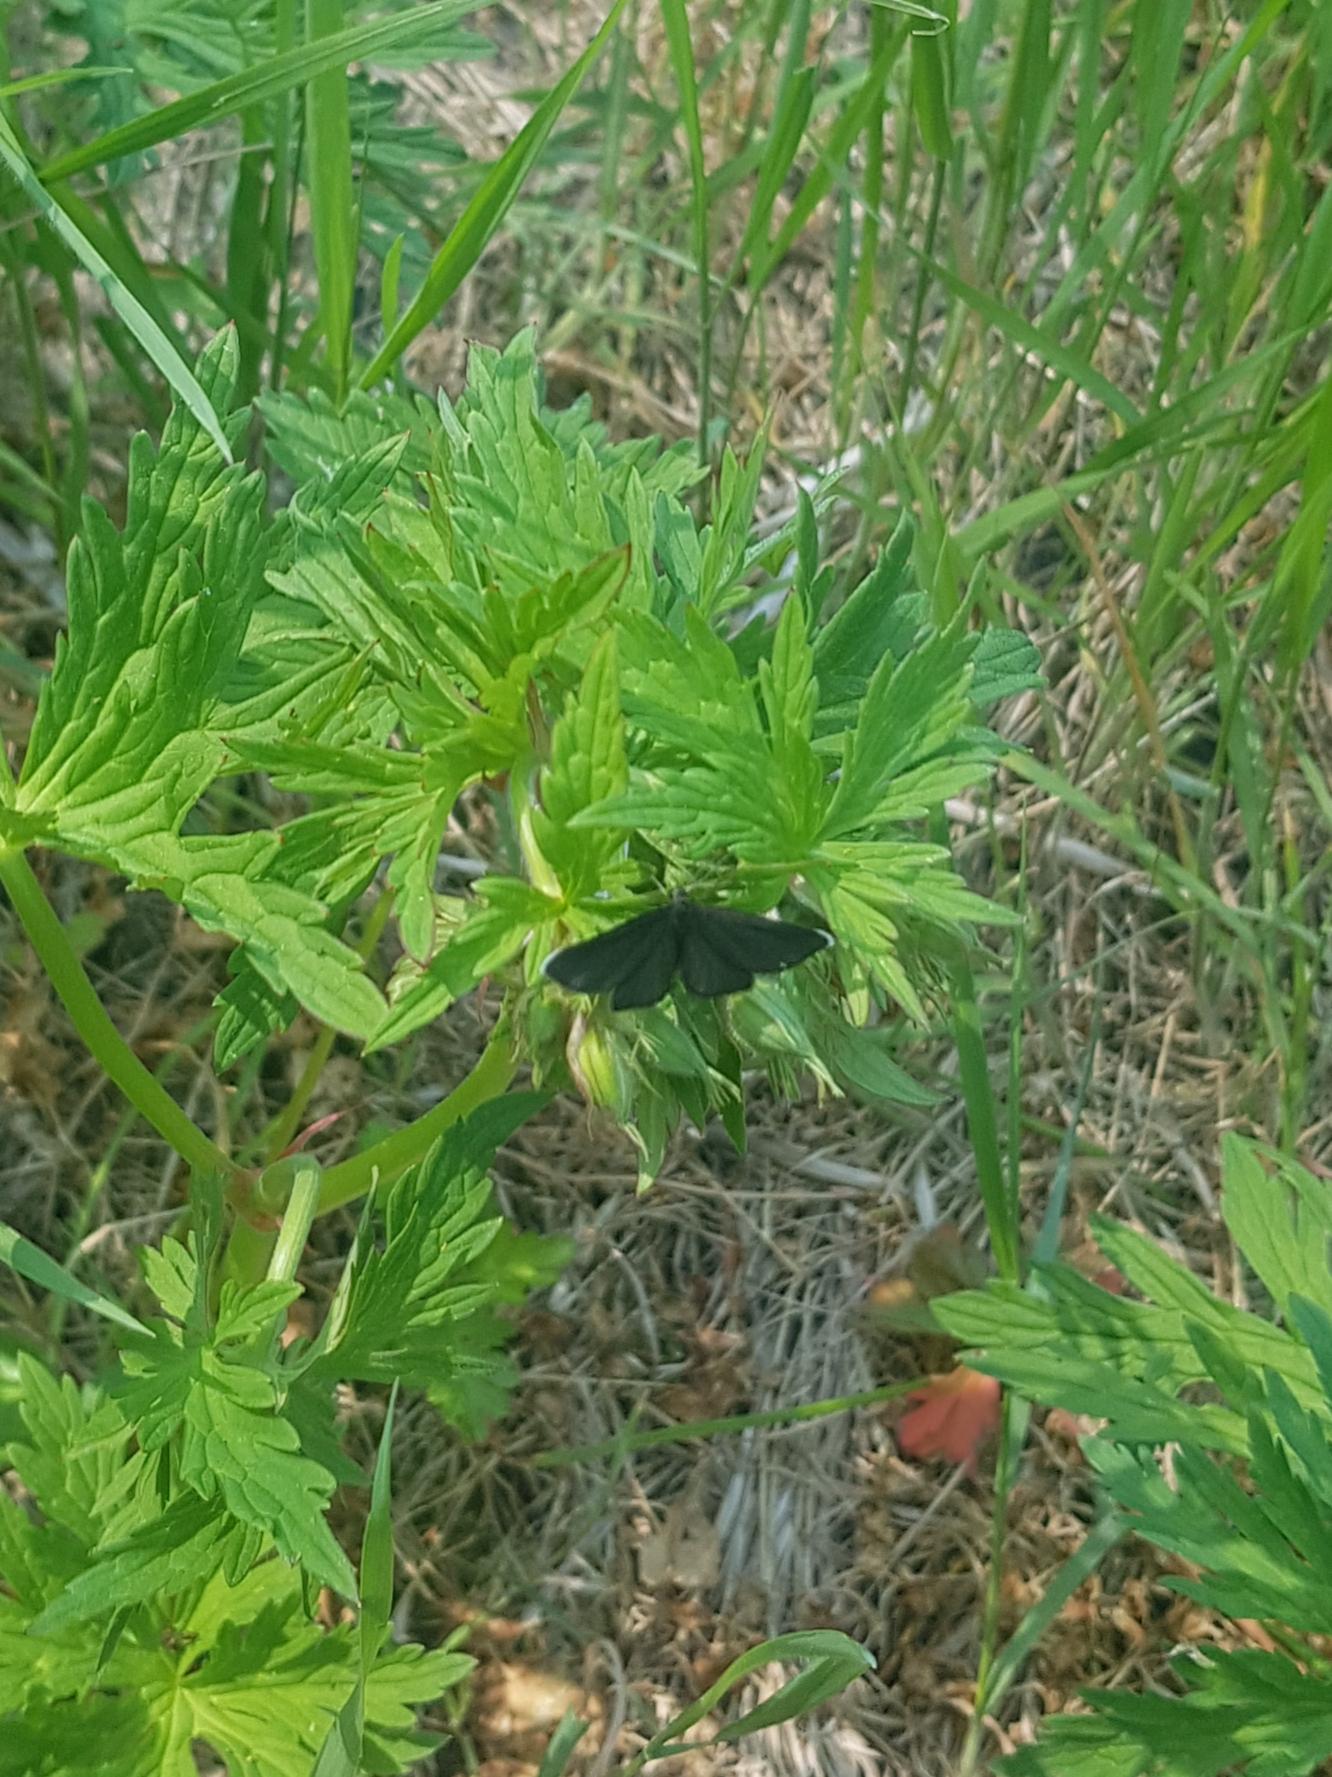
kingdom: Animalia
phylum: Arthropoda
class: Insecta
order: Lepidoptera
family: Geometridae
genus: Odezia
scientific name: Odezia atrata
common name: Sort måler
